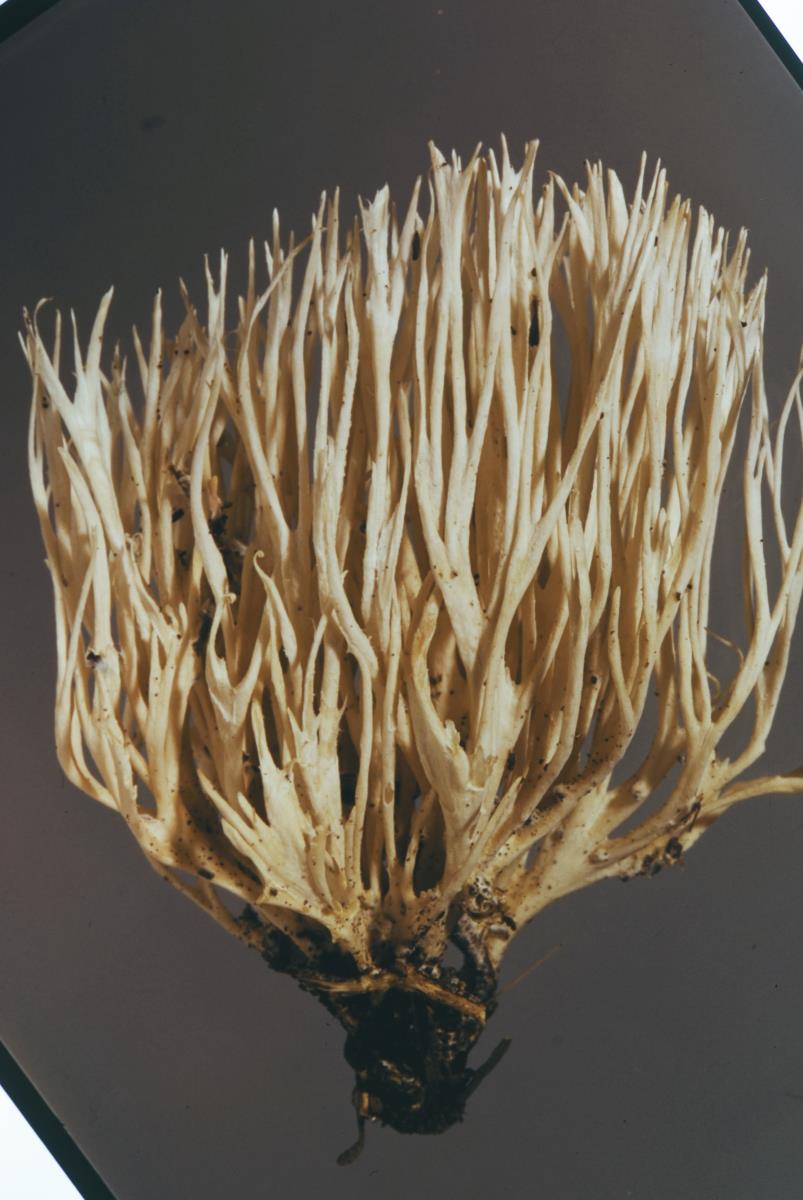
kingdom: Fungi
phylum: Basidiomycota
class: Agaricomycetes
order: Trechisporales
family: Sistotremataceae
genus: Trechispora
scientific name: Trechispora
